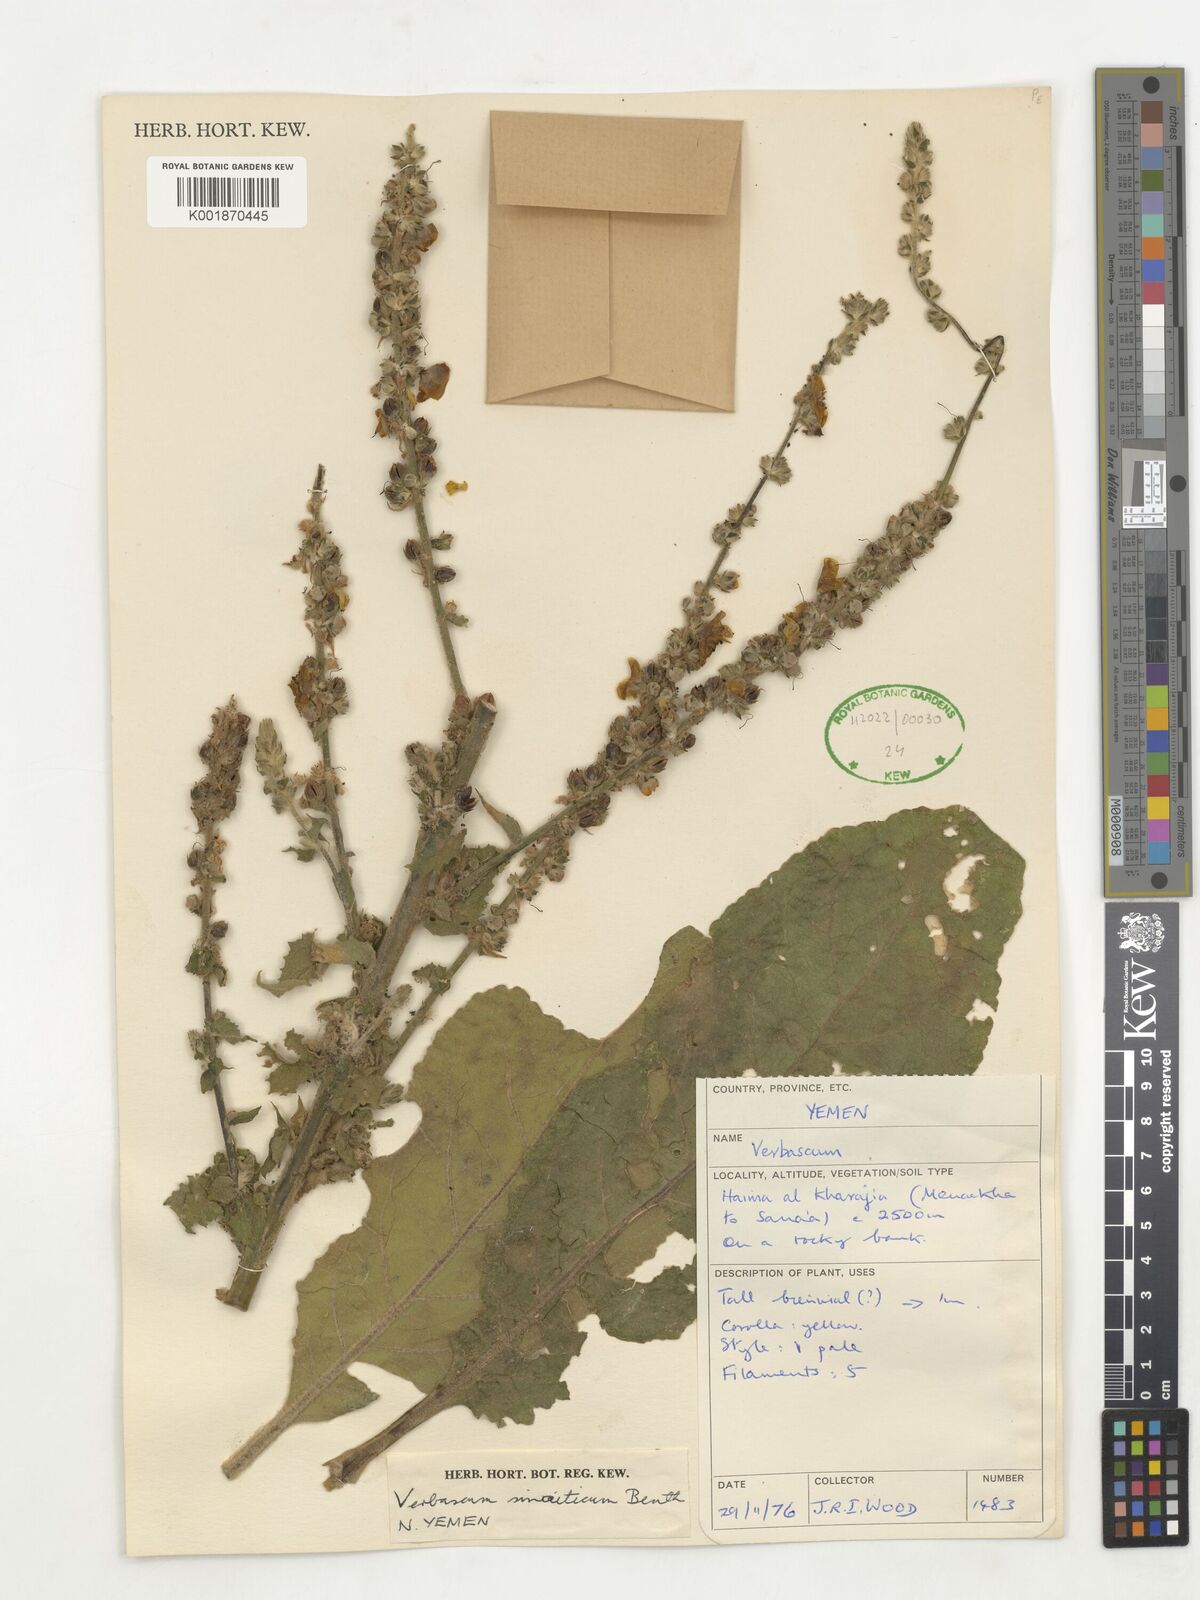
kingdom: Plantae
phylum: Tracheophyta
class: Magnoliopsida
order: Lamiales
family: Scrophulariaceae
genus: Verbascum
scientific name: Verbascum sinaiticum
